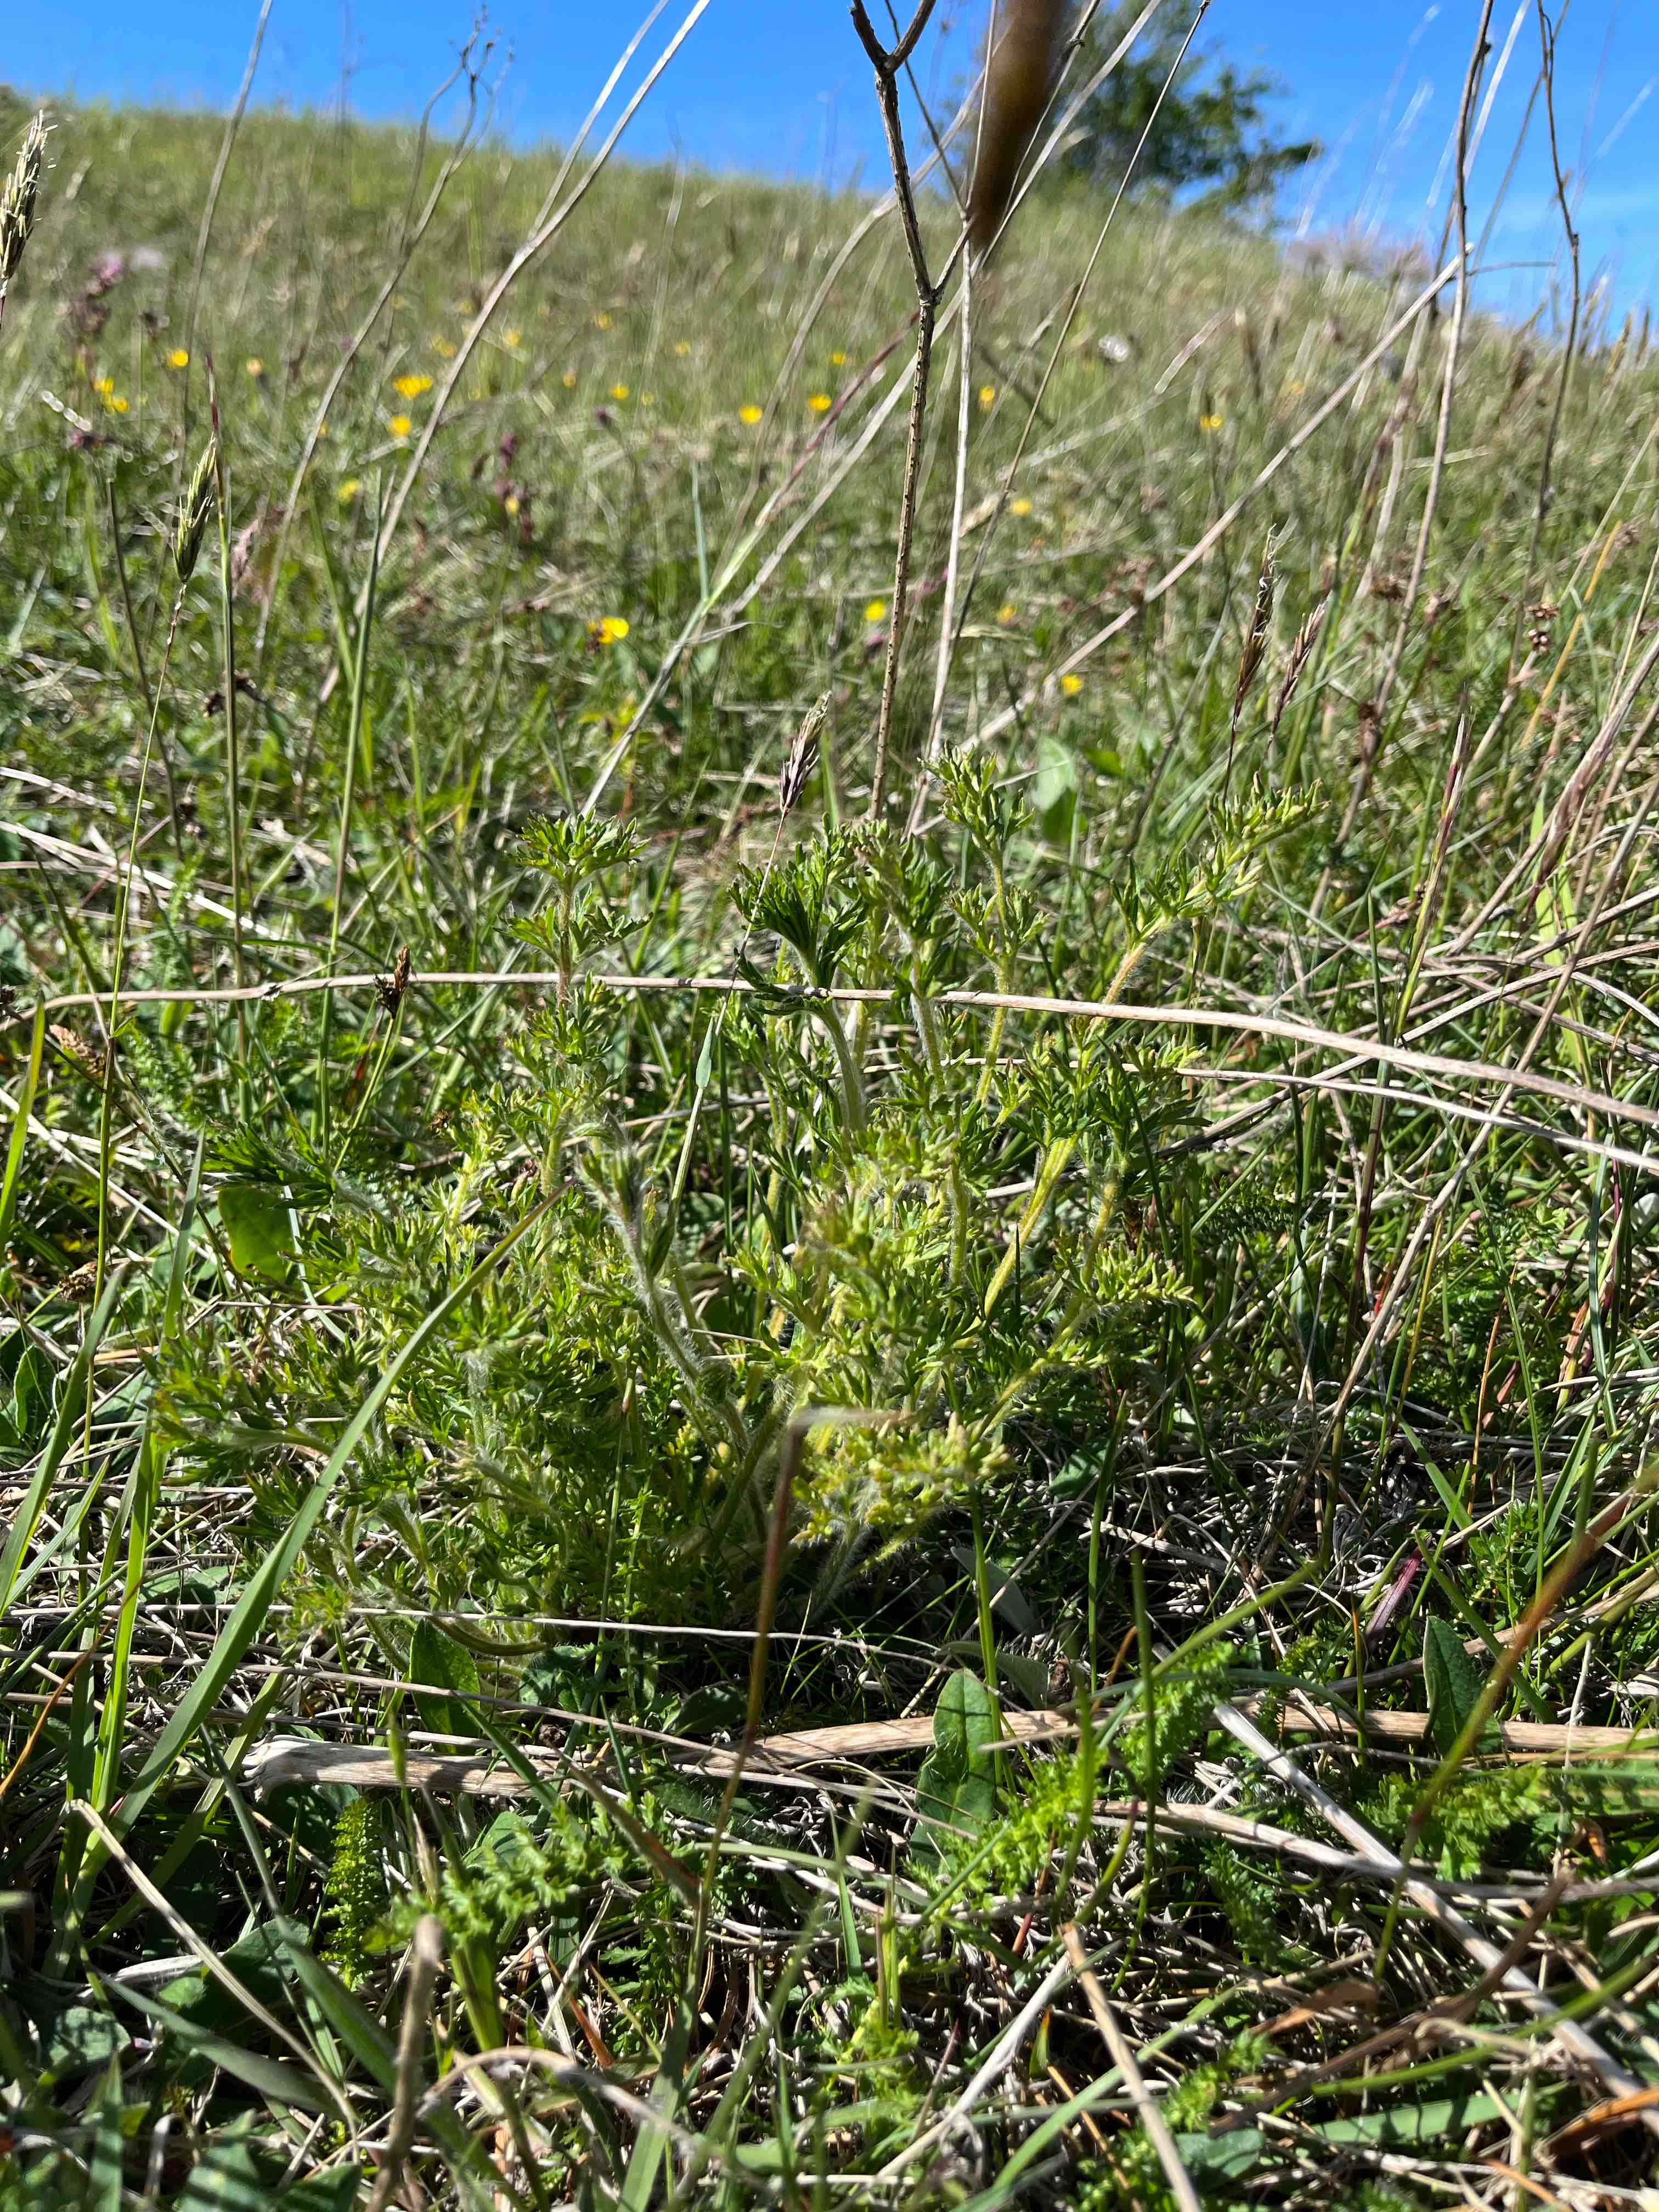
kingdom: Fungi
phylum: Basidiomycota
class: Pucciniomycetes
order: Pucciniales
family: Tranzscheliaceae
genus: Tranzschelia
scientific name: Tranzschelia pulsatillae
